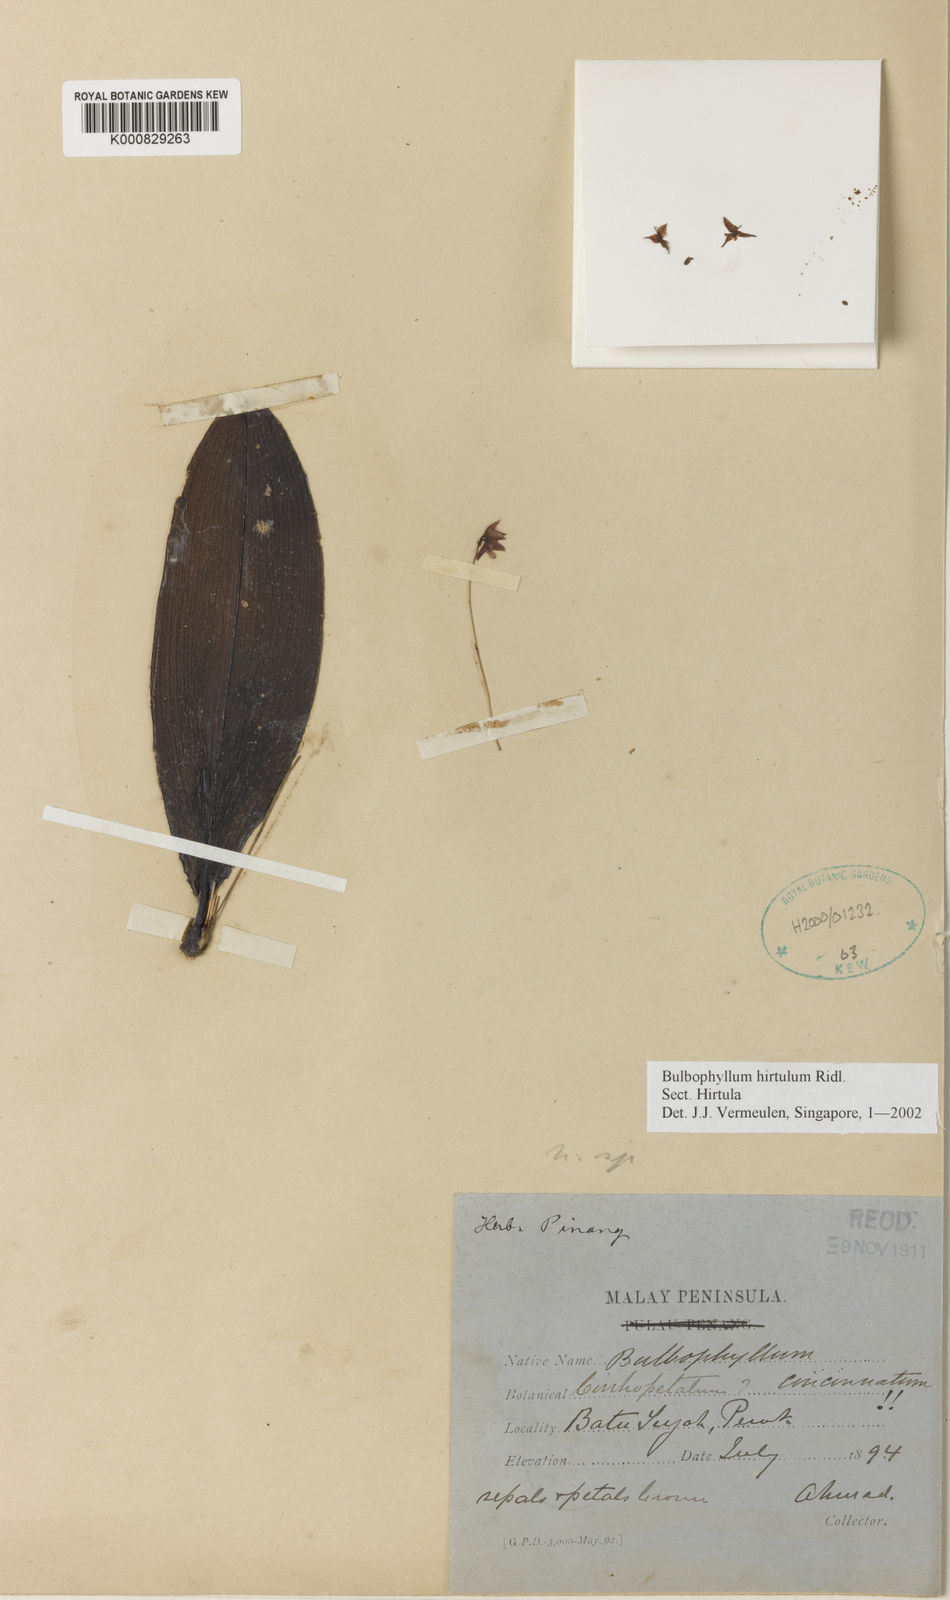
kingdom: Plantae
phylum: Tracheophyta
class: Liliopsida
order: Asparagales
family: Orchidaceae
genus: Bulbophyllum
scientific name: Bulbophyllum hirtulum
